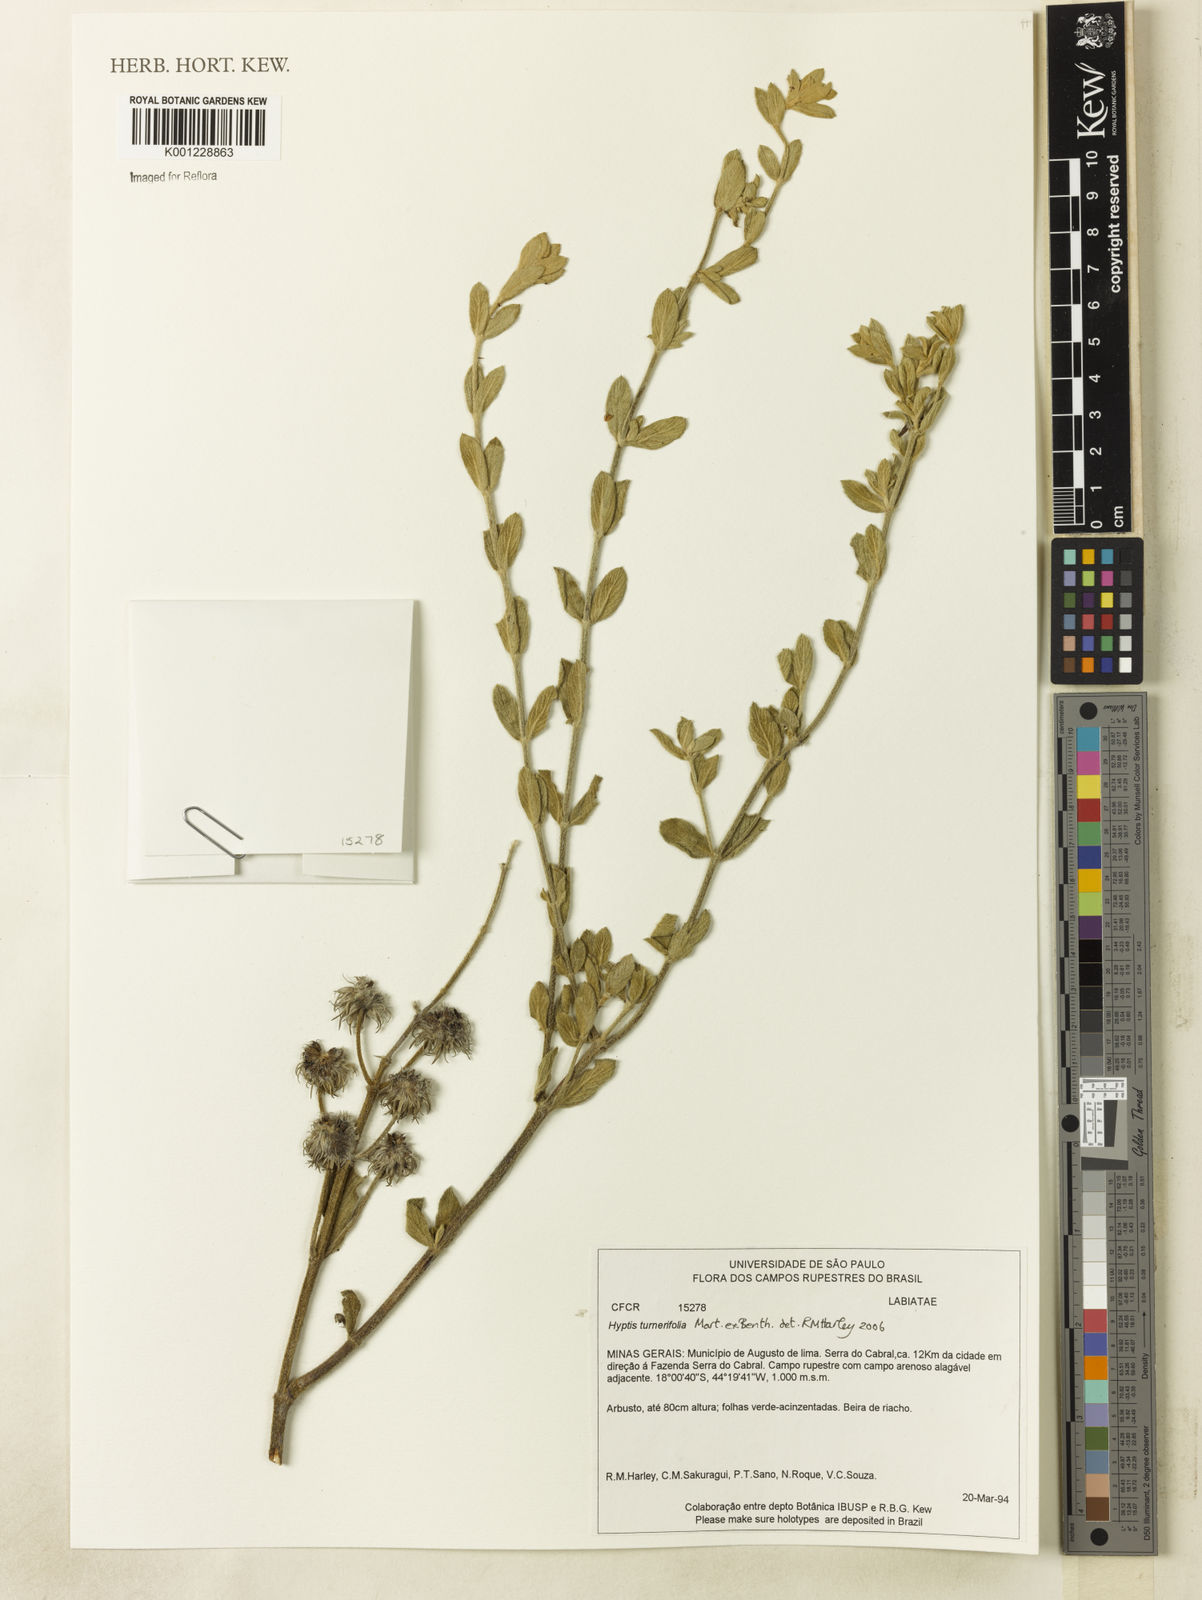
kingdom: Plantae
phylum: Tracheophyta
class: Magnoliopsida
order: Lamiales
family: Lamiaceae
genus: Hyptis
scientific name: Hyptis turnerifolia
